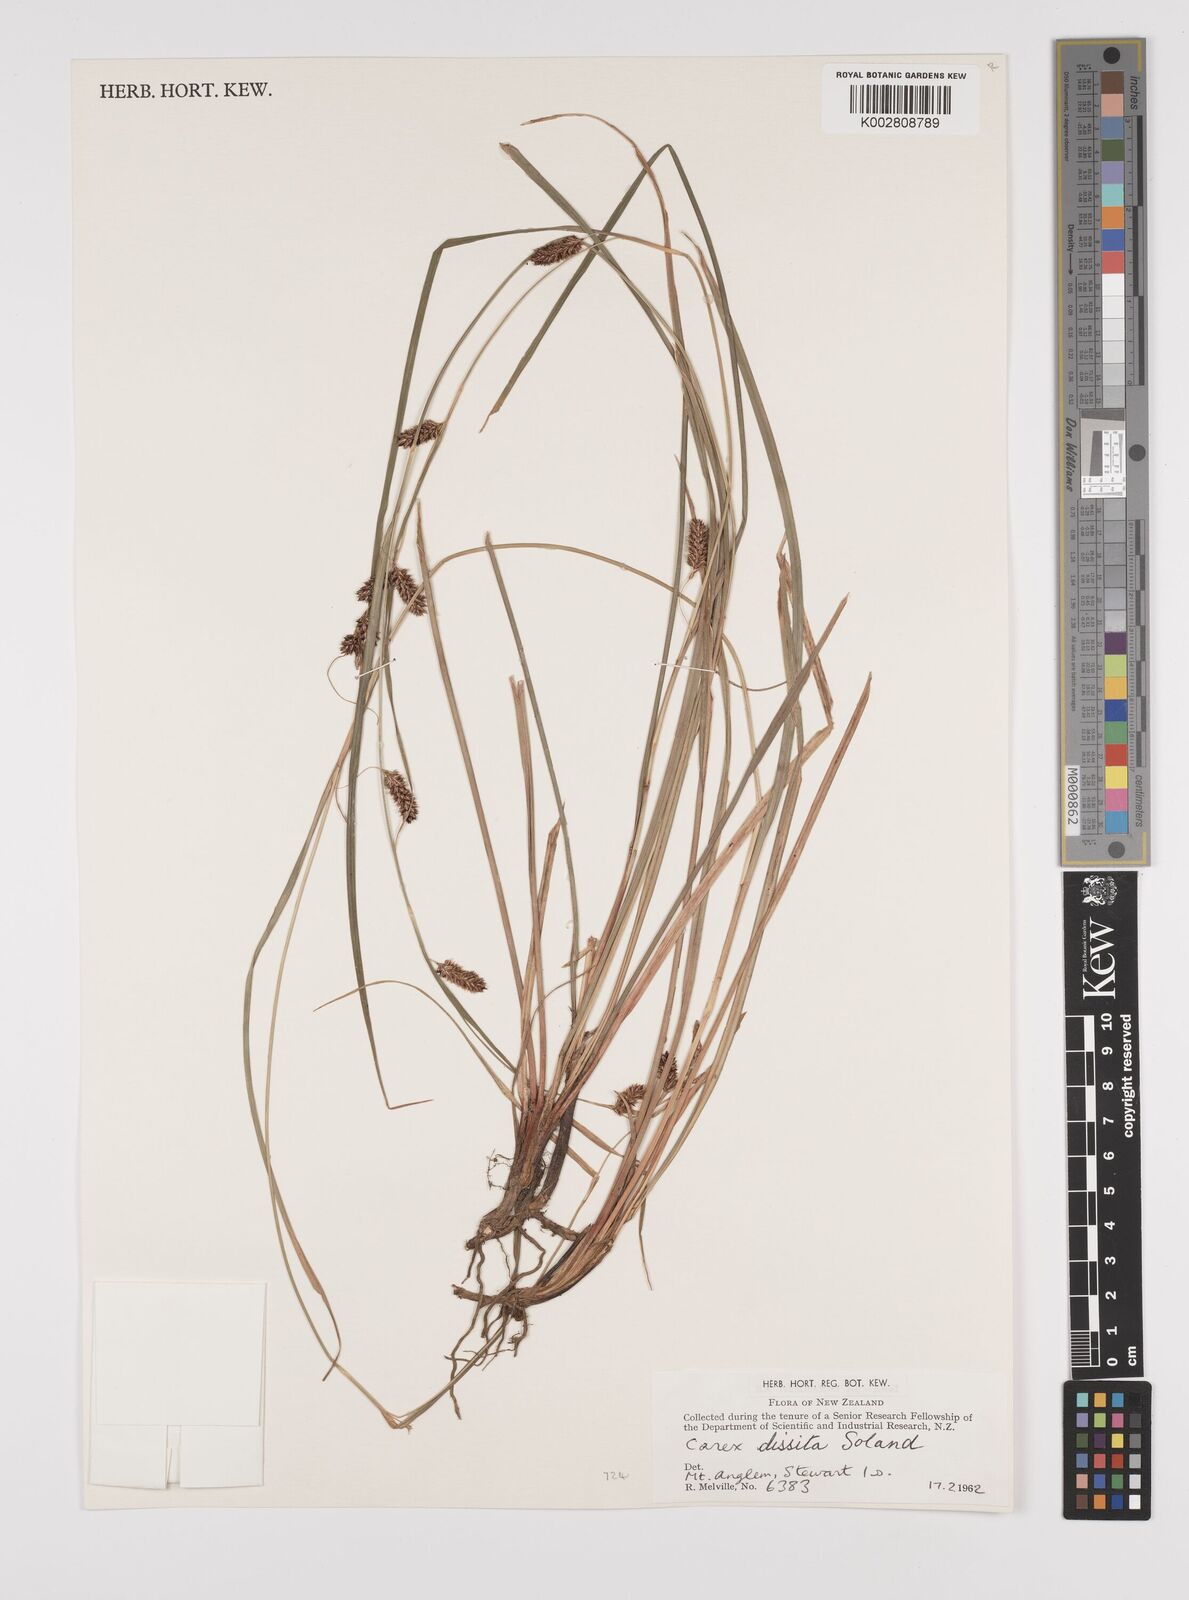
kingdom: Plantae
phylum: Tracheophyta
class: Liliopsida
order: Poales
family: Cyperaceae
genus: Carex
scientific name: Carex dissita
